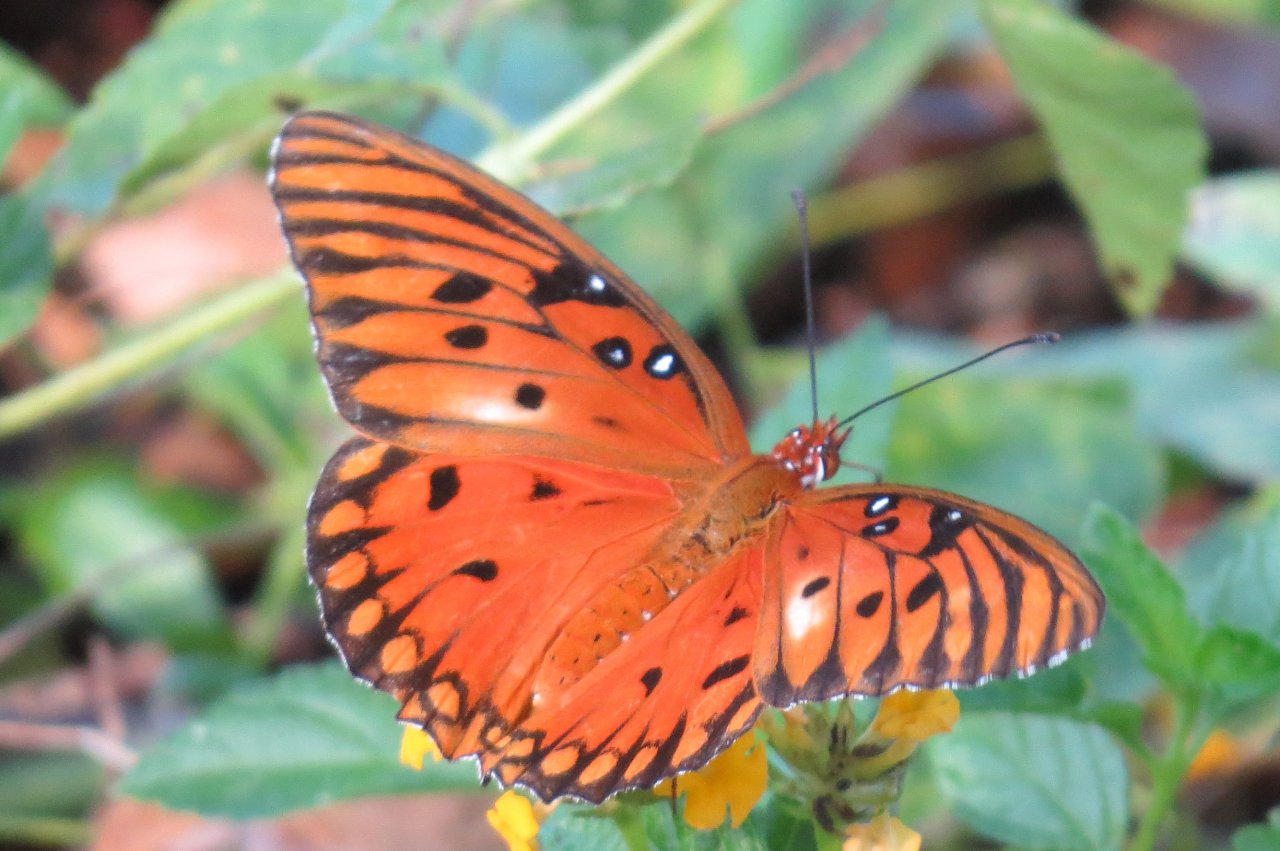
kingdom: Animalia
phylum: Arthropoda
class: Insecta
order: Lepidoptera
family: Nymphalidae
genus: Dione
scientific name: Dione vanillae
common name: Gulf Fritillary
